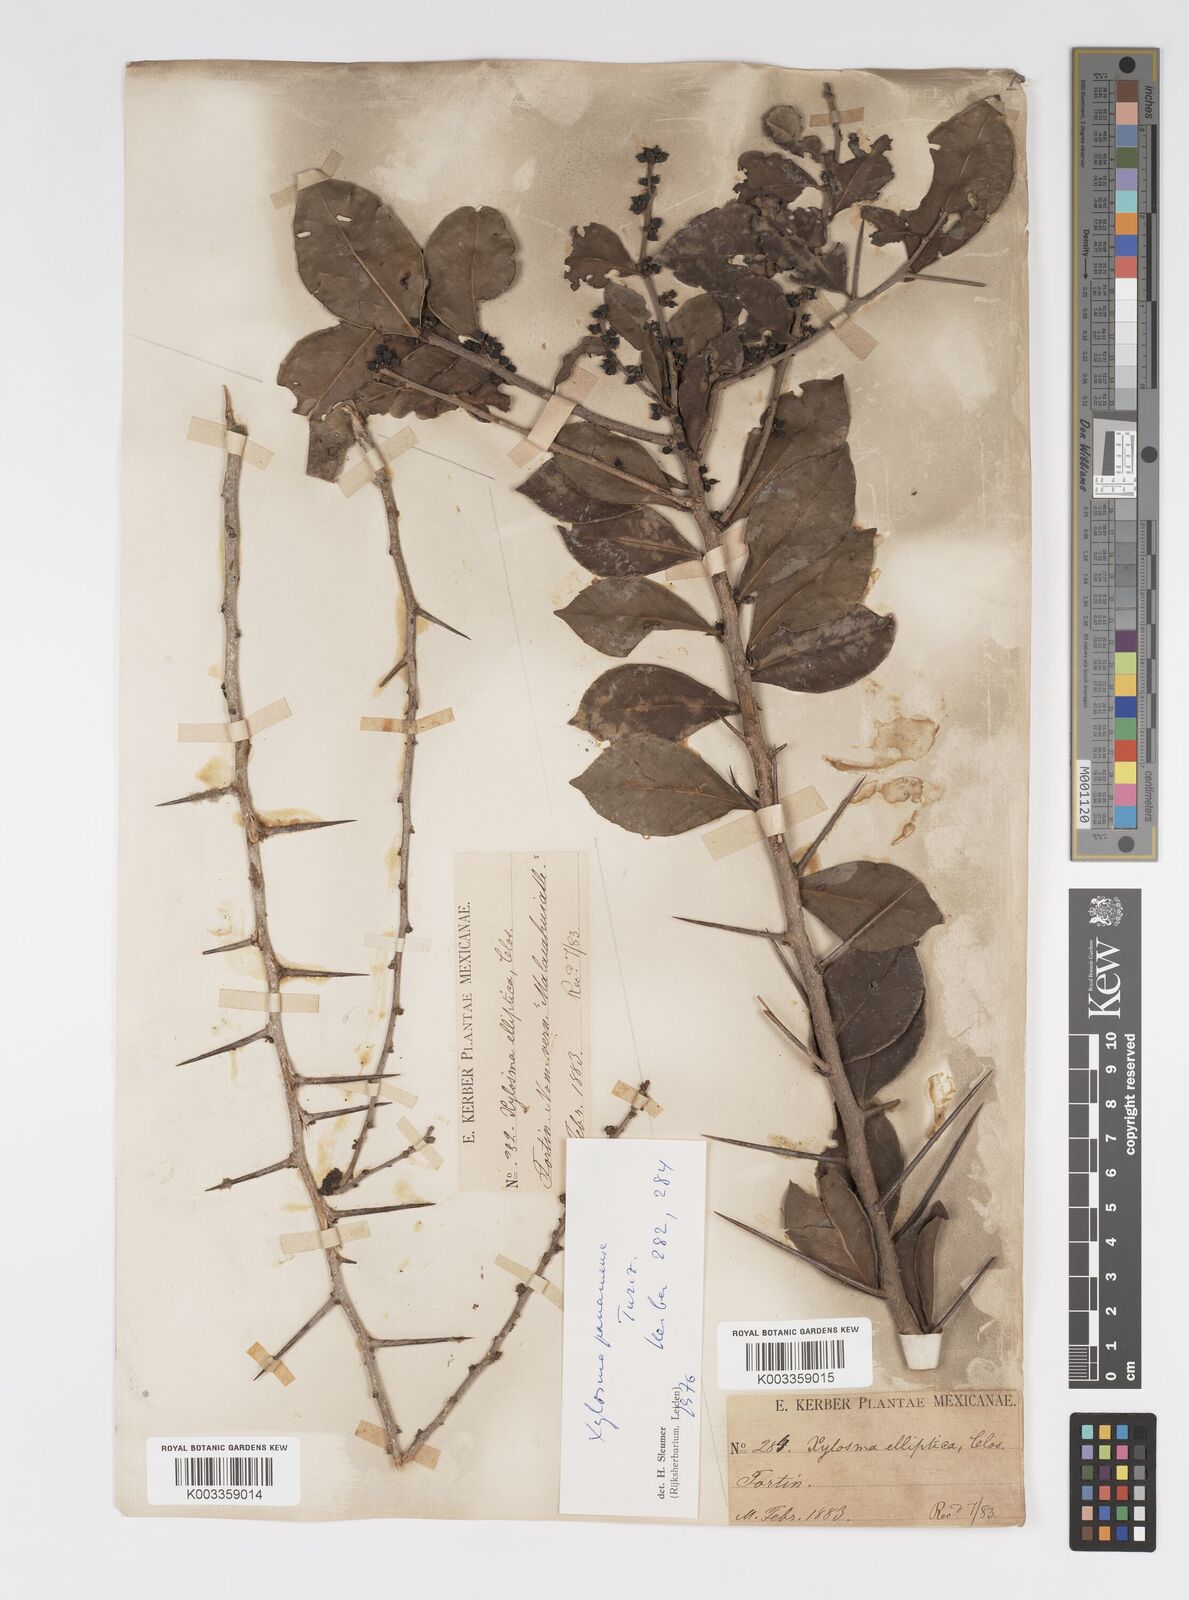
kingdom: Plantae
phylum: Tracheophyta
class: Magnoliopsida
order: Malpighiales
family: Salicaceae
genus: Xylosma
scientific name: Xylosma panamensis
